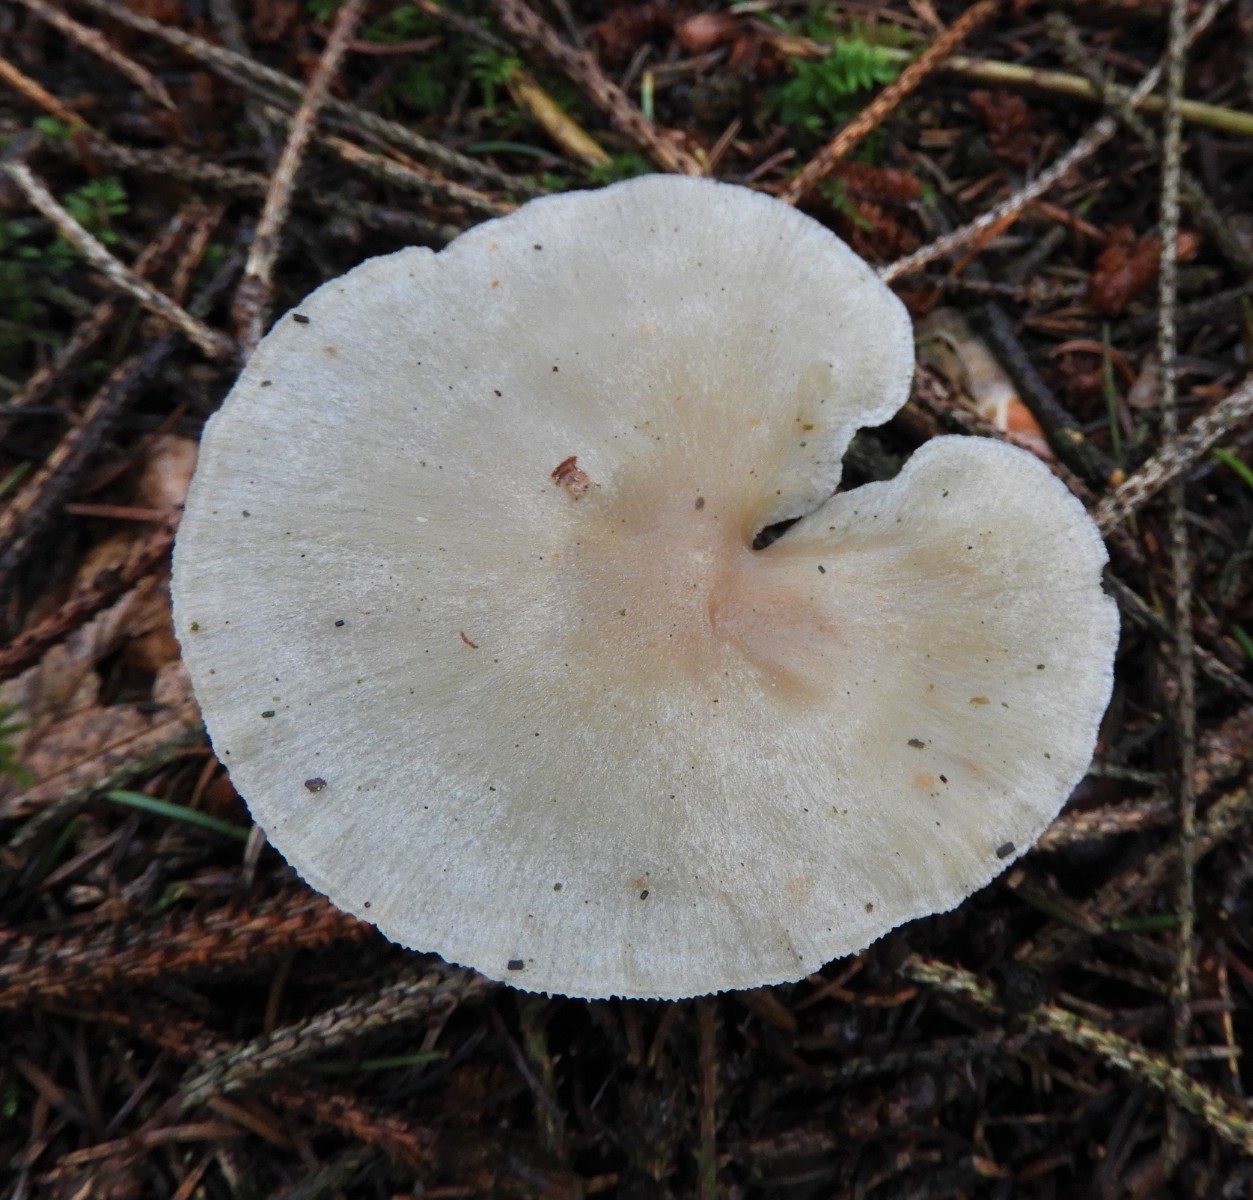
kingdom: Fungi
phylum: Basidiomycota
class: Agaricomycetes
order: Agaricales
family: Tricholomataceae
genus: Clitocybe
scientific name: Clitocybe odora
